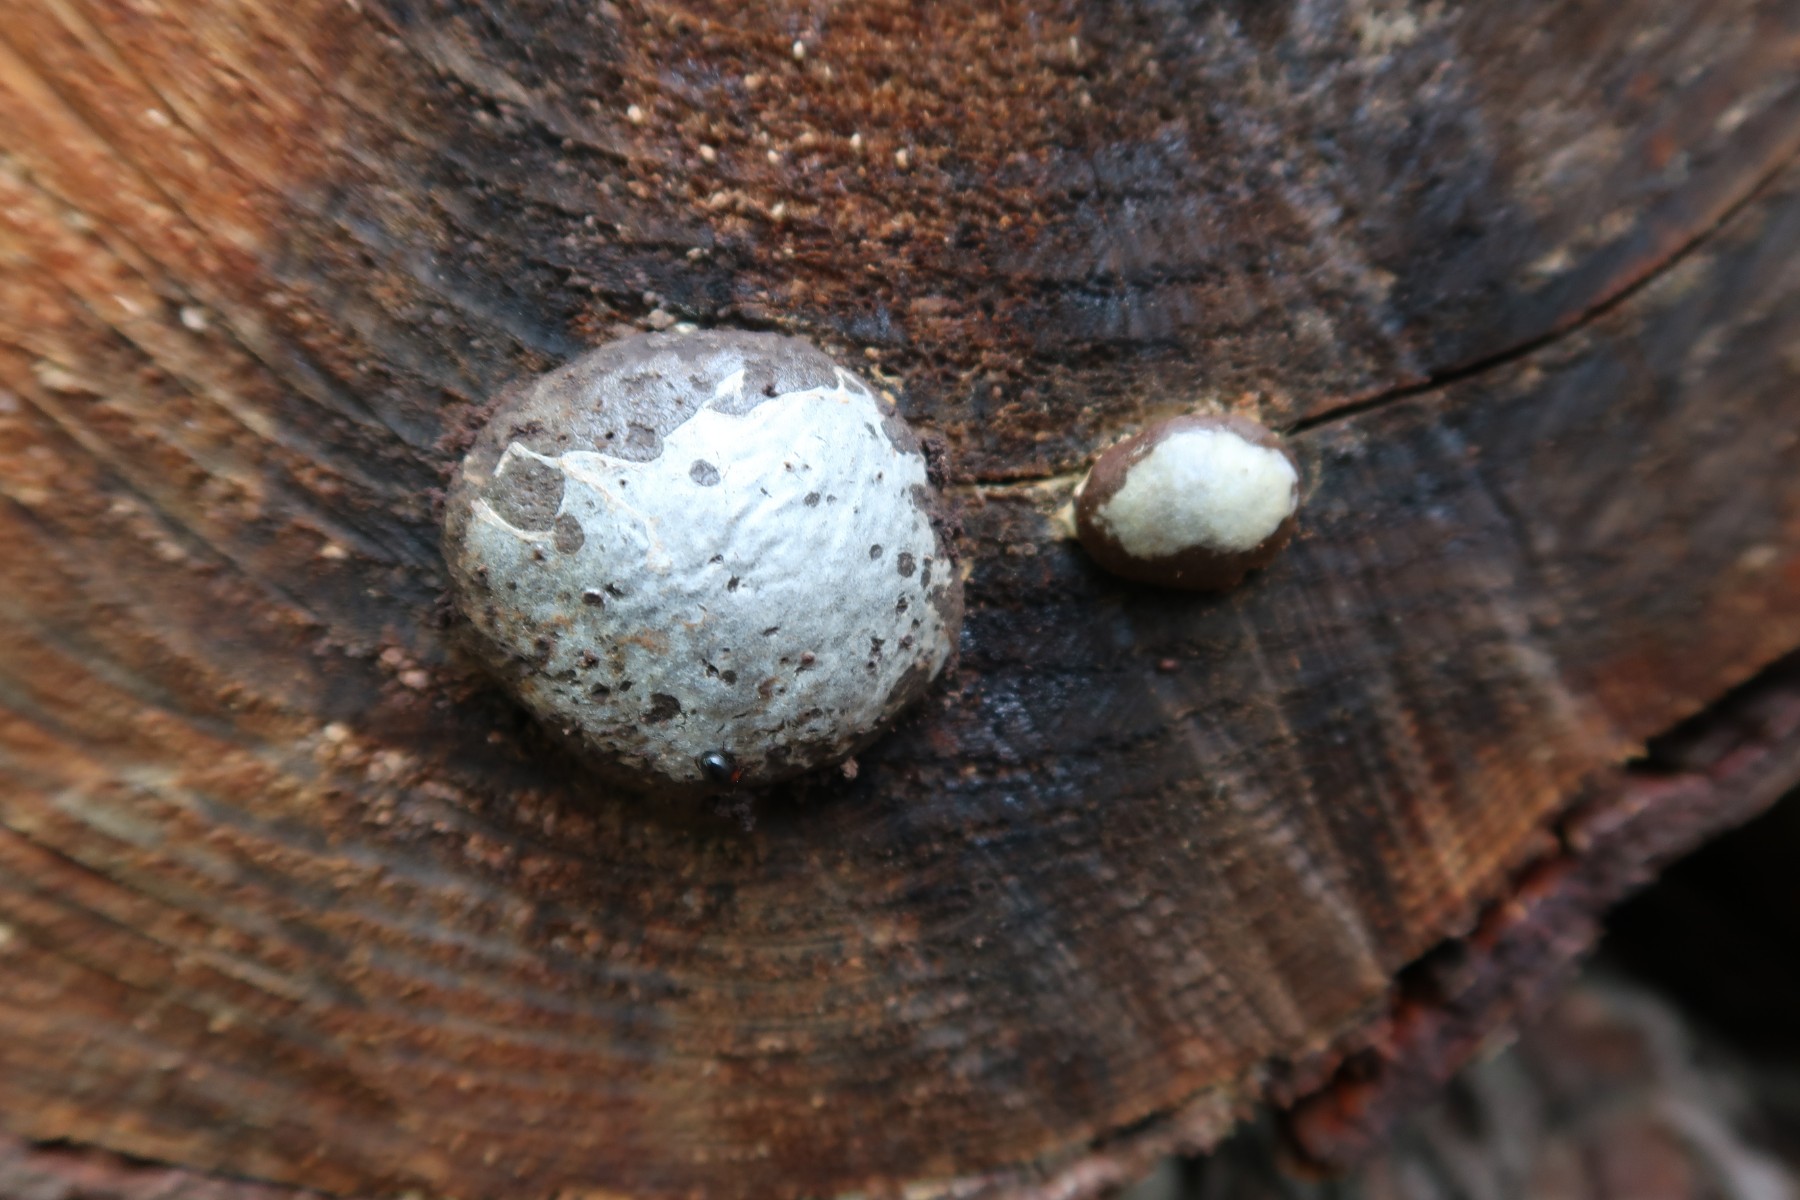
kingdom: Protozoa
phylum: Mycetozoa
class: Myxomycetes
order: Cribrariales
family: Tubiferaceae
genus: Reticularia
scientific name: Reticularia lycoperdon
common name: skinnende støvpude
